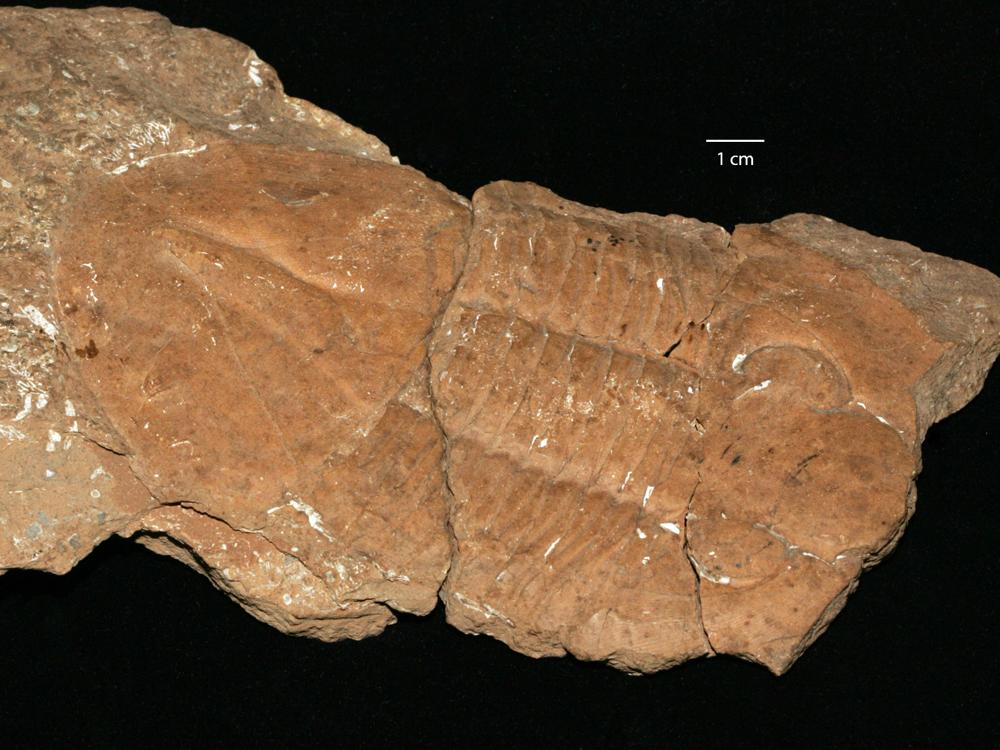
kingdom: Animalia
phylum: Arthropoda
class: Trilobita
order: Asaphida
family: Asaphidae
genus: Pseudasaphus
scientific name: Pseudasaphus tecticaudatus
